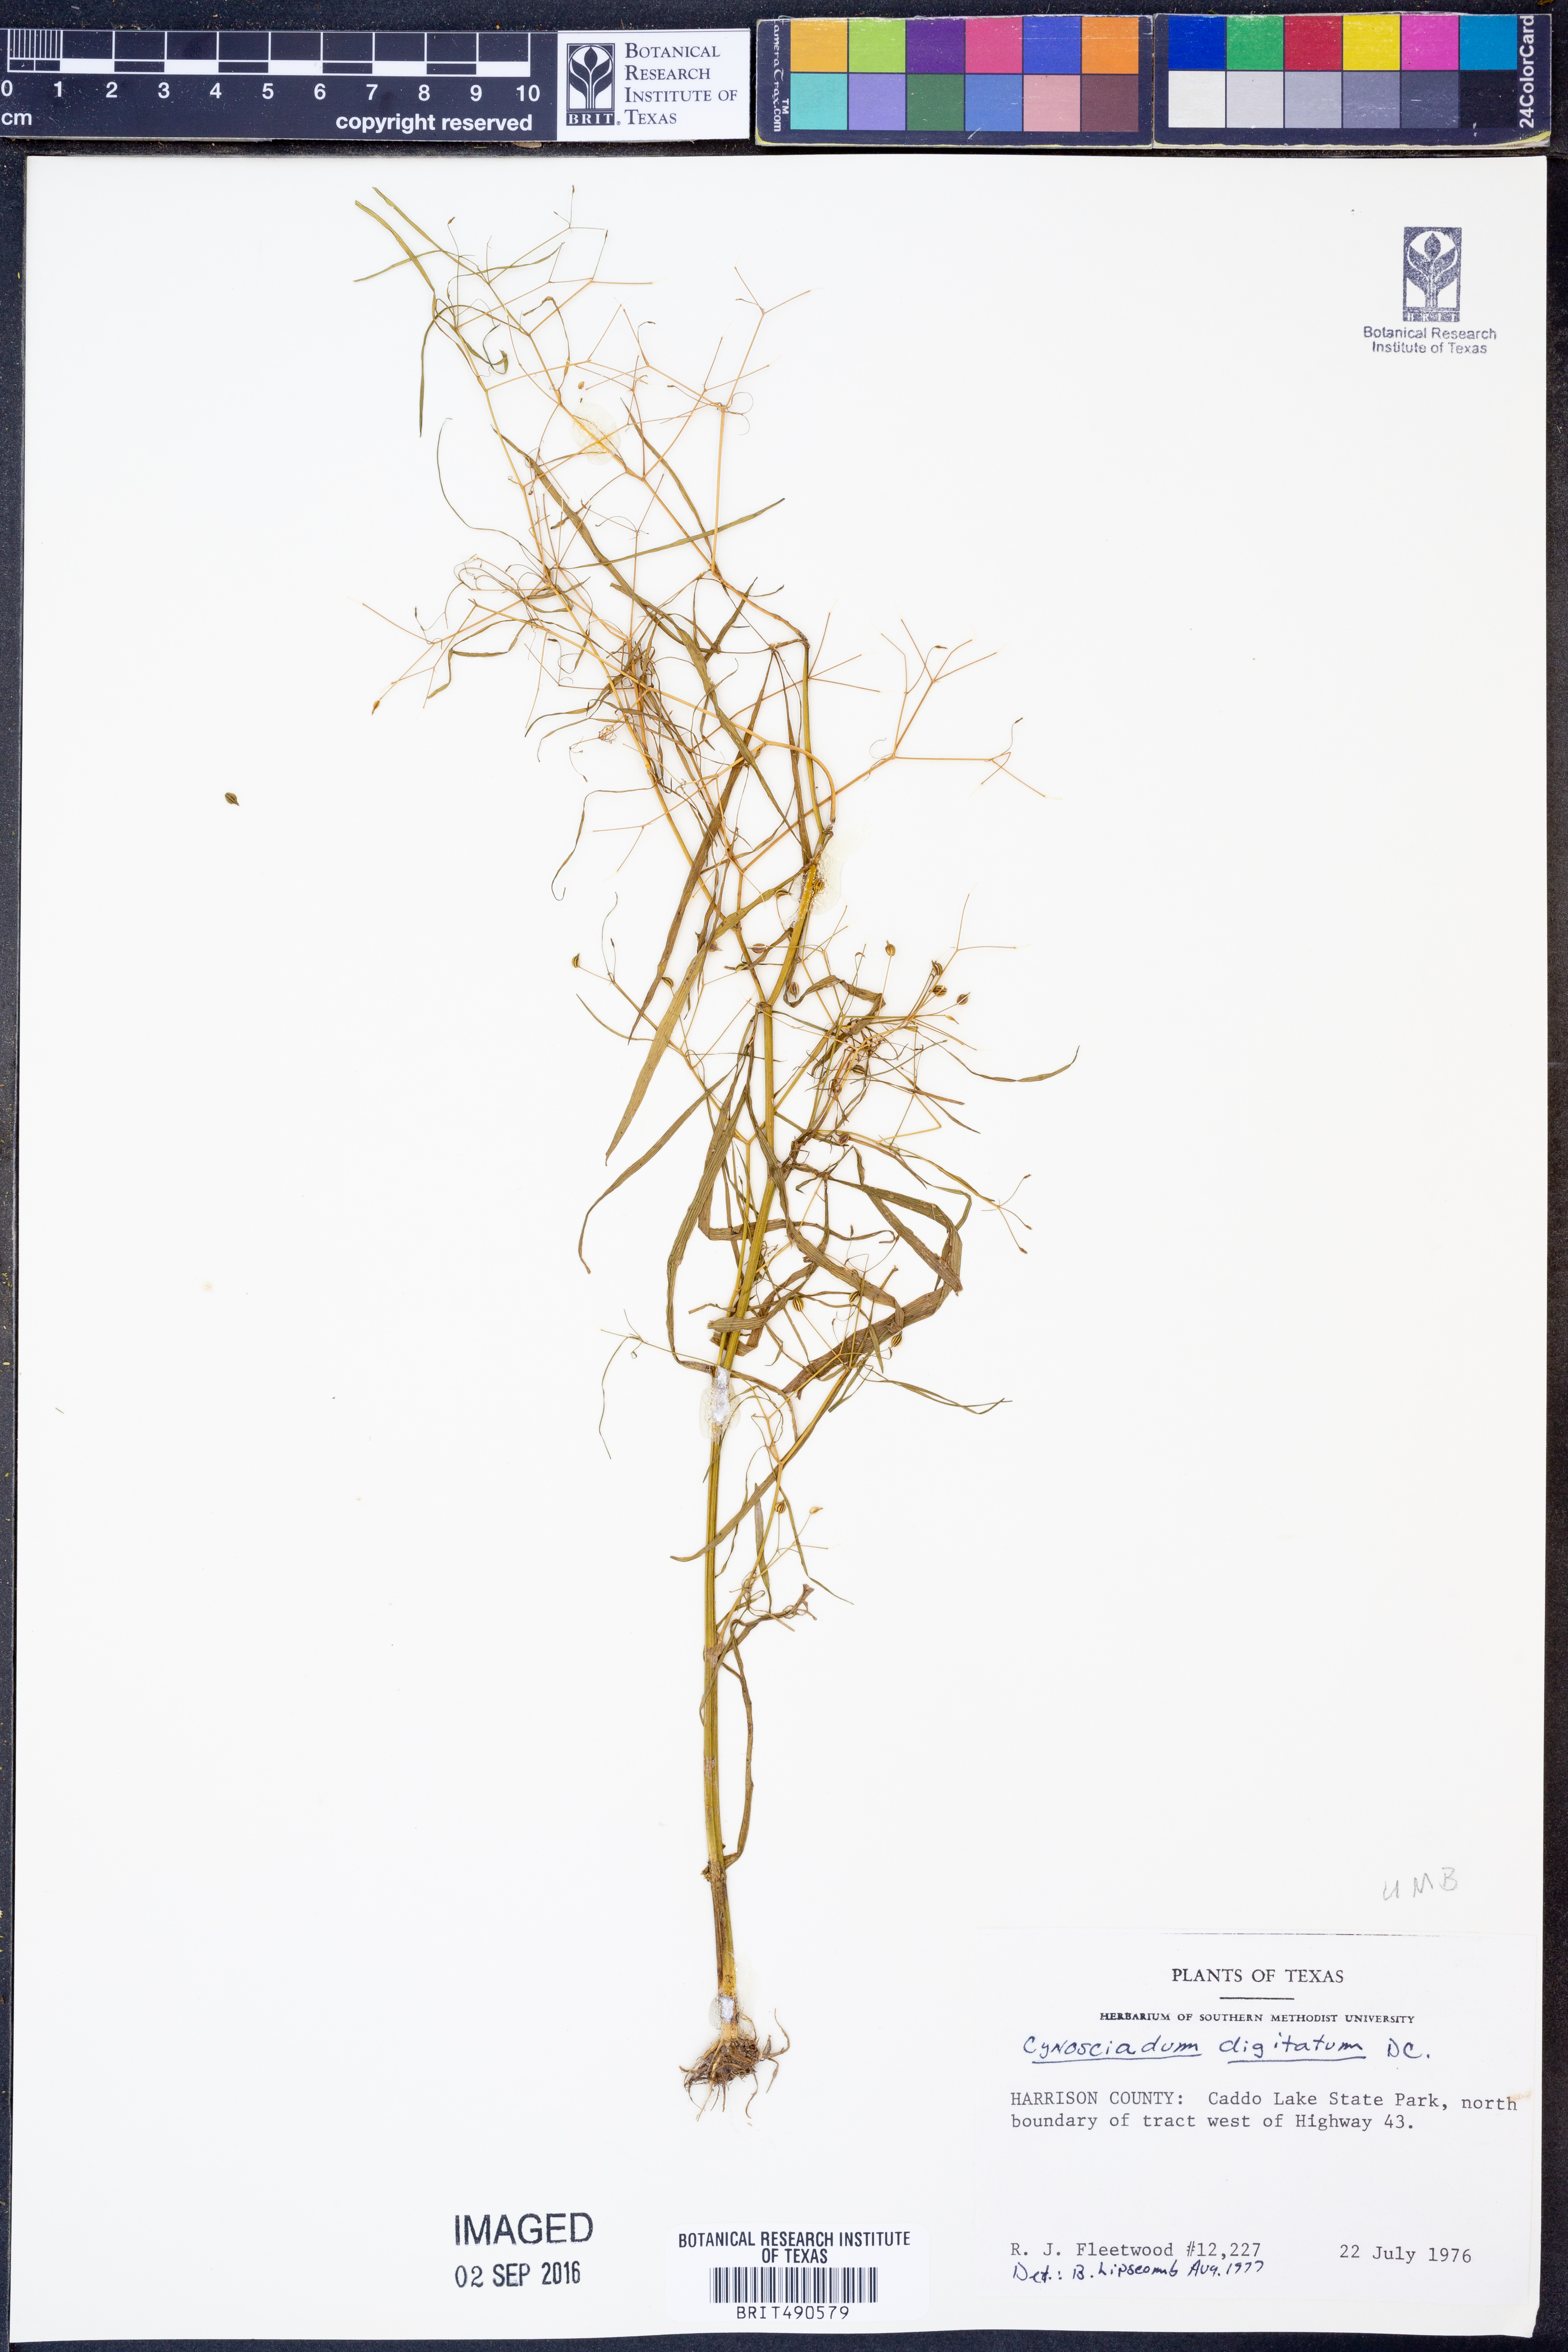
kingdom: Plantae
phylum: Tracheophyta
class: Magnoliopsida
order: Apiales
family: Apiaceae
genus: Cynosciadium
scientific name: Cynosciadium digitatum
